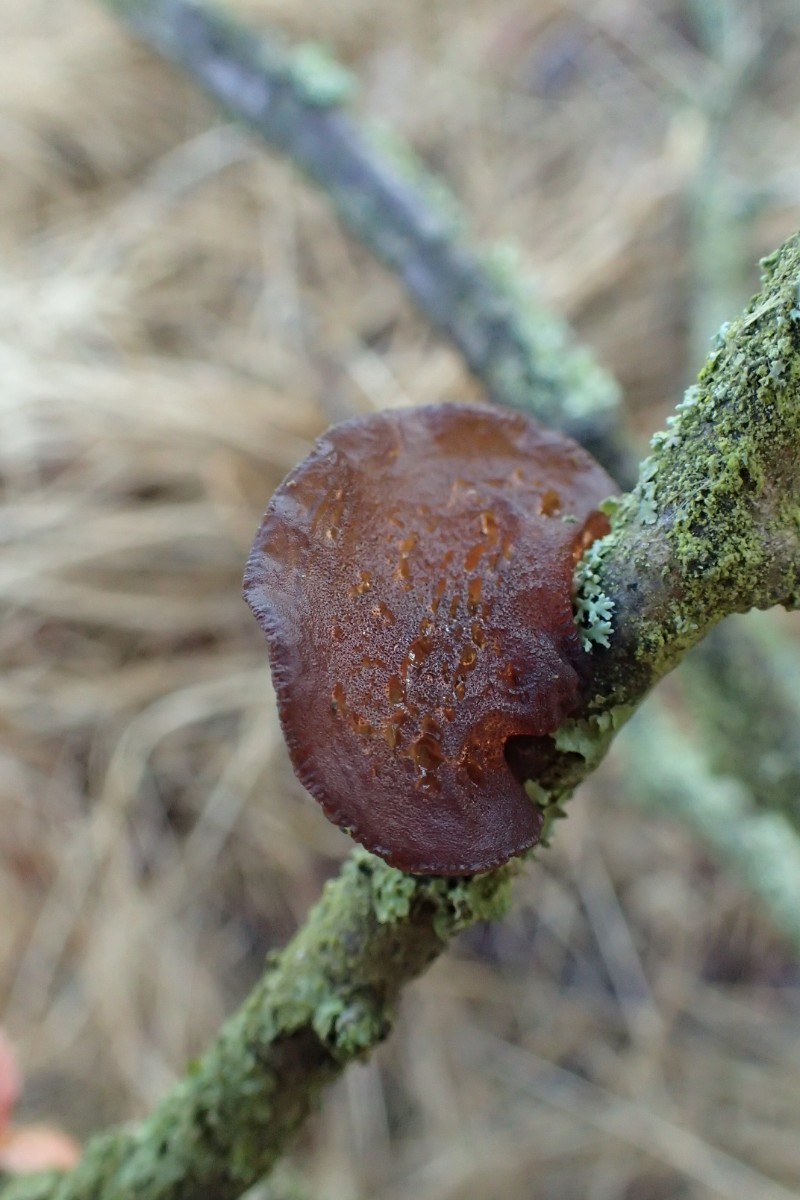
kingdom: Fungi
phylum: Basidiomycota
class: Agaricomycetes
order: Auriculariales
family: Auriculariaceae
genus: Exidia
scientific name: Exidia recisa
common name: pile-bævretop
